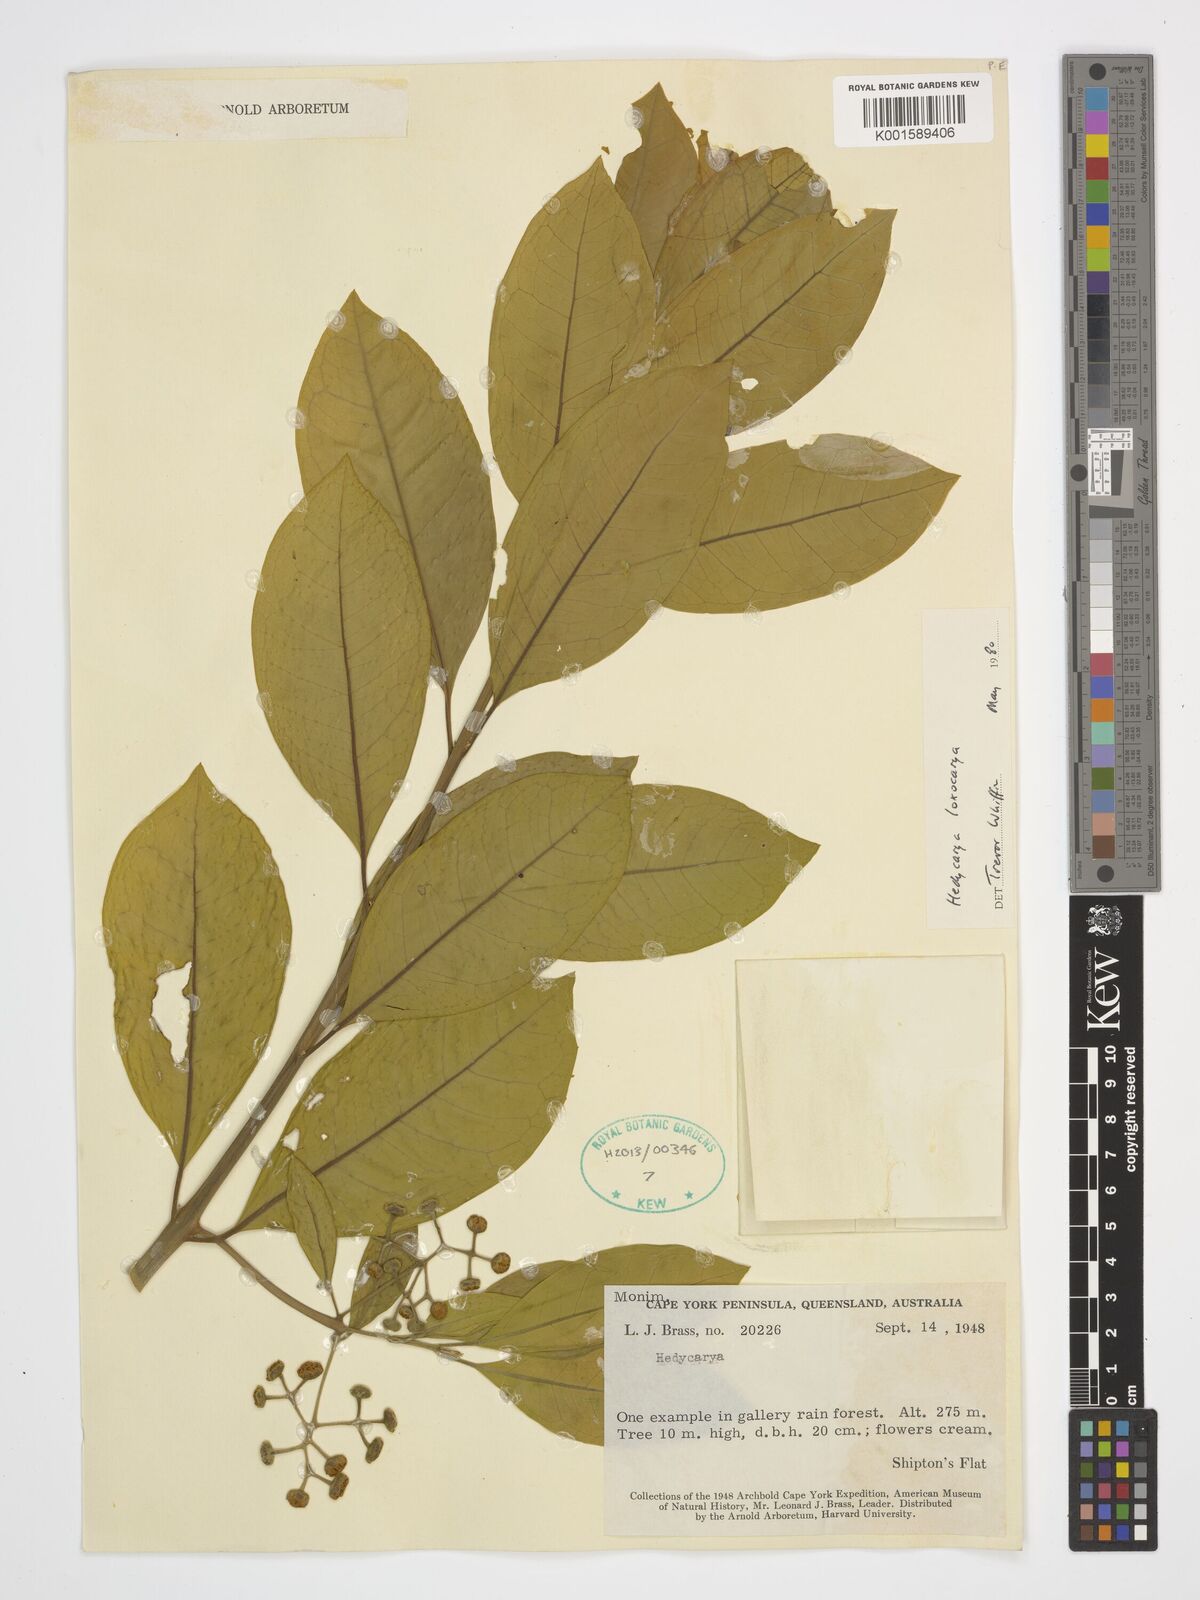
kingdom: Plantae
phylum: Tracheophyta
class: Magnoliopsida
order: Laurales
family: Monimiaceae
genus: Hedycarya
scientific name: Hedycarya loxocarya
